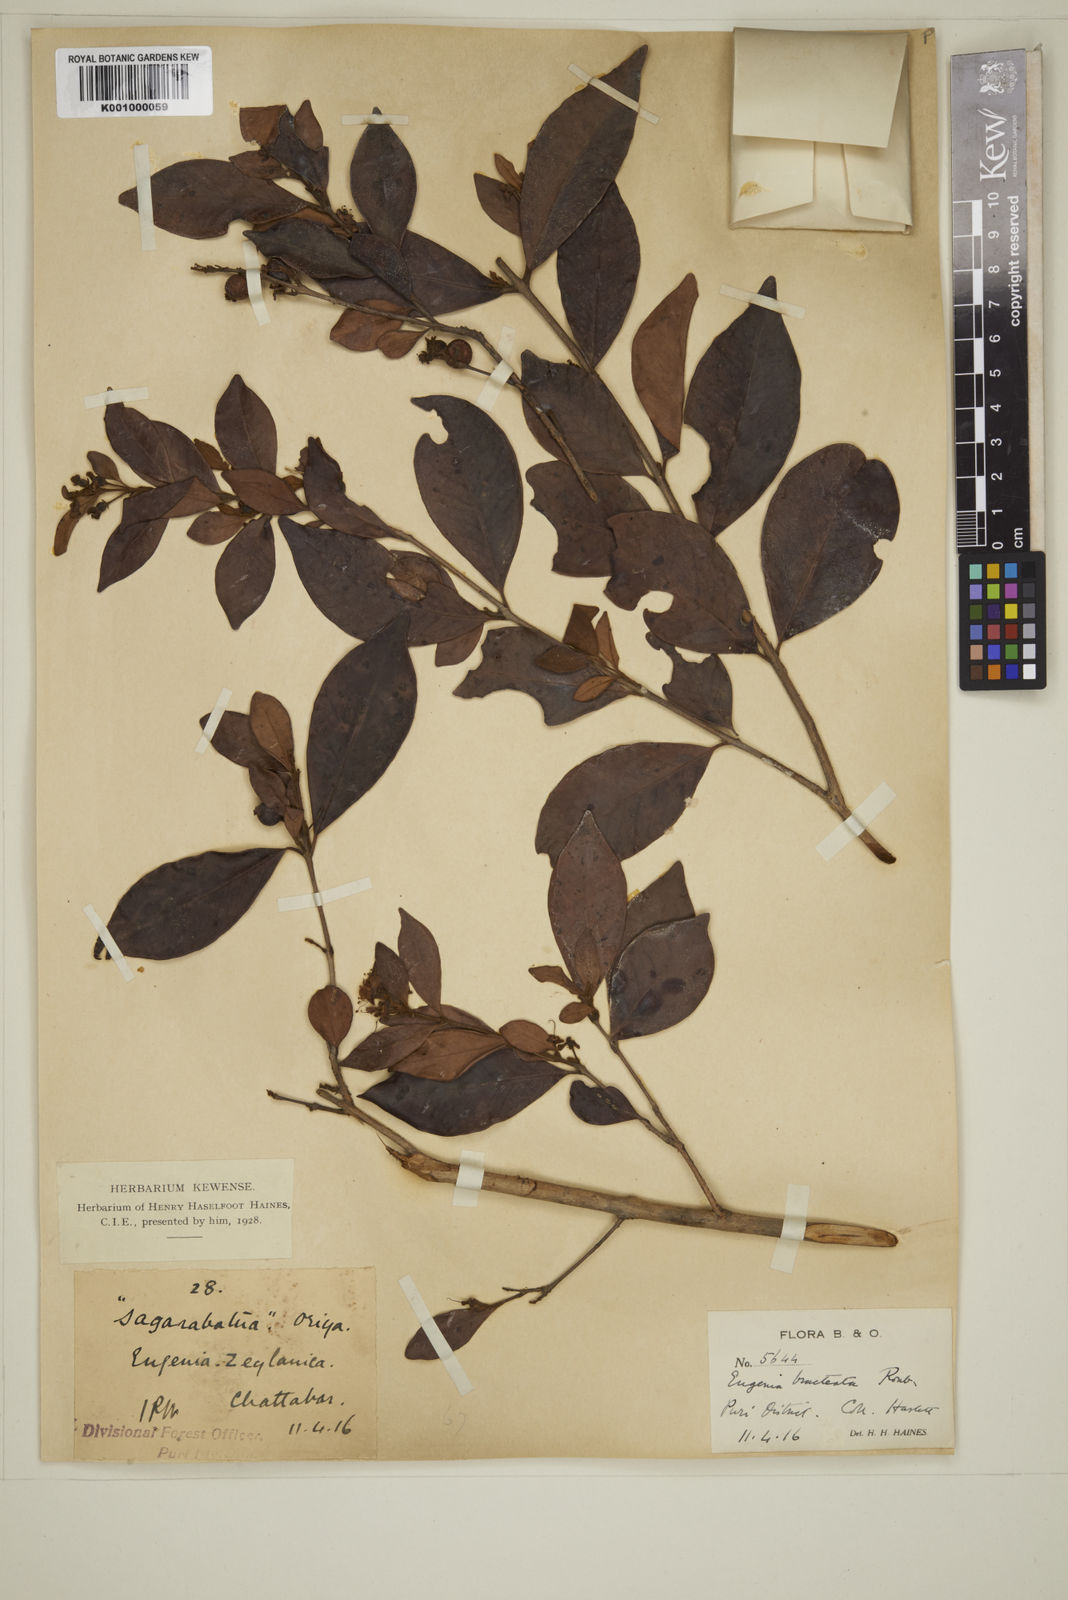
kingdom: Plantae
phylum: Tracheophyta
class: Magnoliopsida
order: Myrtales
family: Myrtaceae
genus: Myrcia
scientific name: Myrcia bracteata
